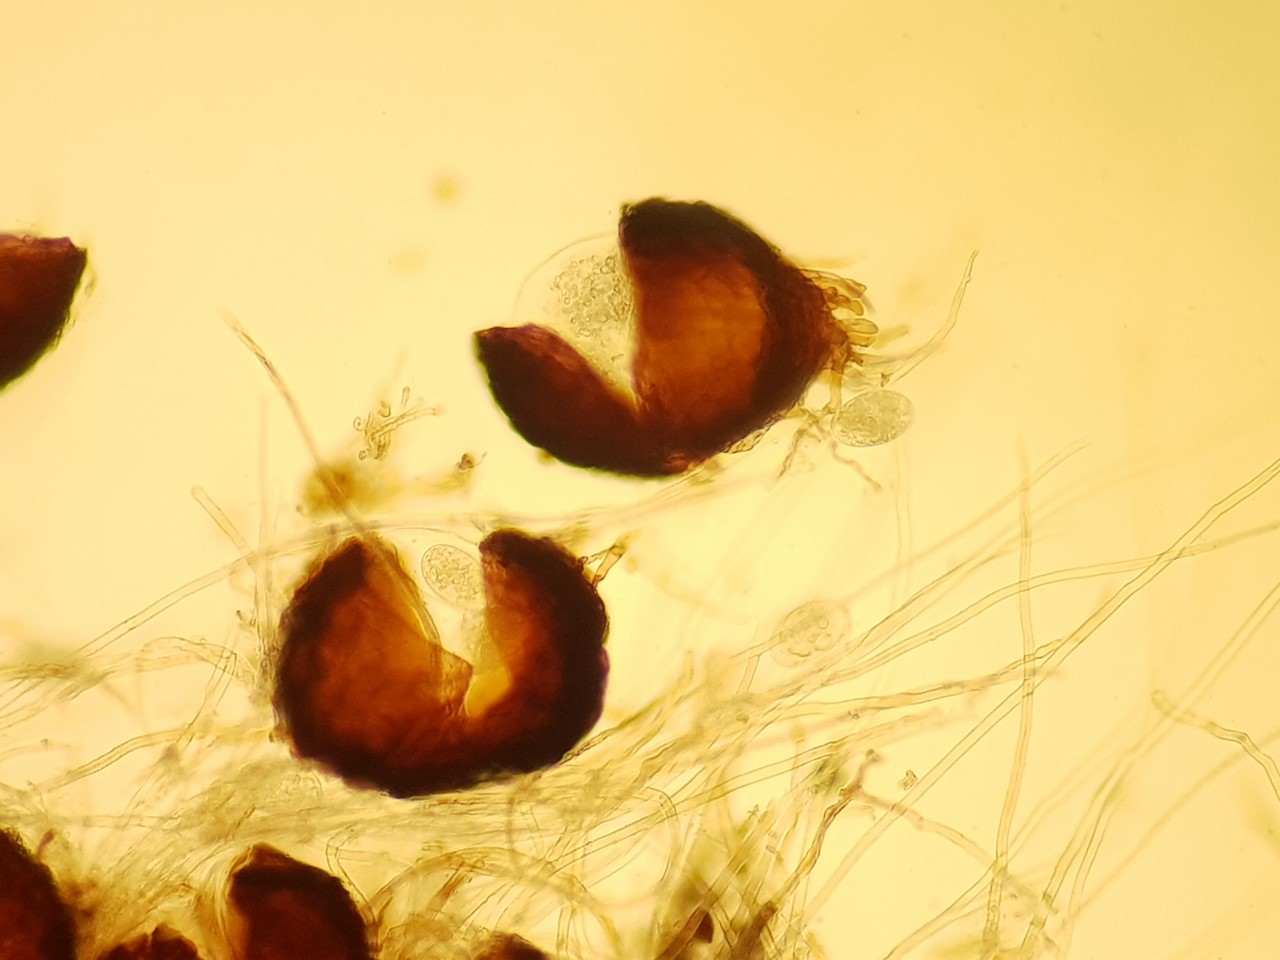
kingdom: Fungi
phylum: Ascomycota
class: Leotiomycetes
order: Helotiales
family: Erysiphaceae
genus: Podosphaera
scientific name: Podosphaera pannosa
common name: Rose mildew
